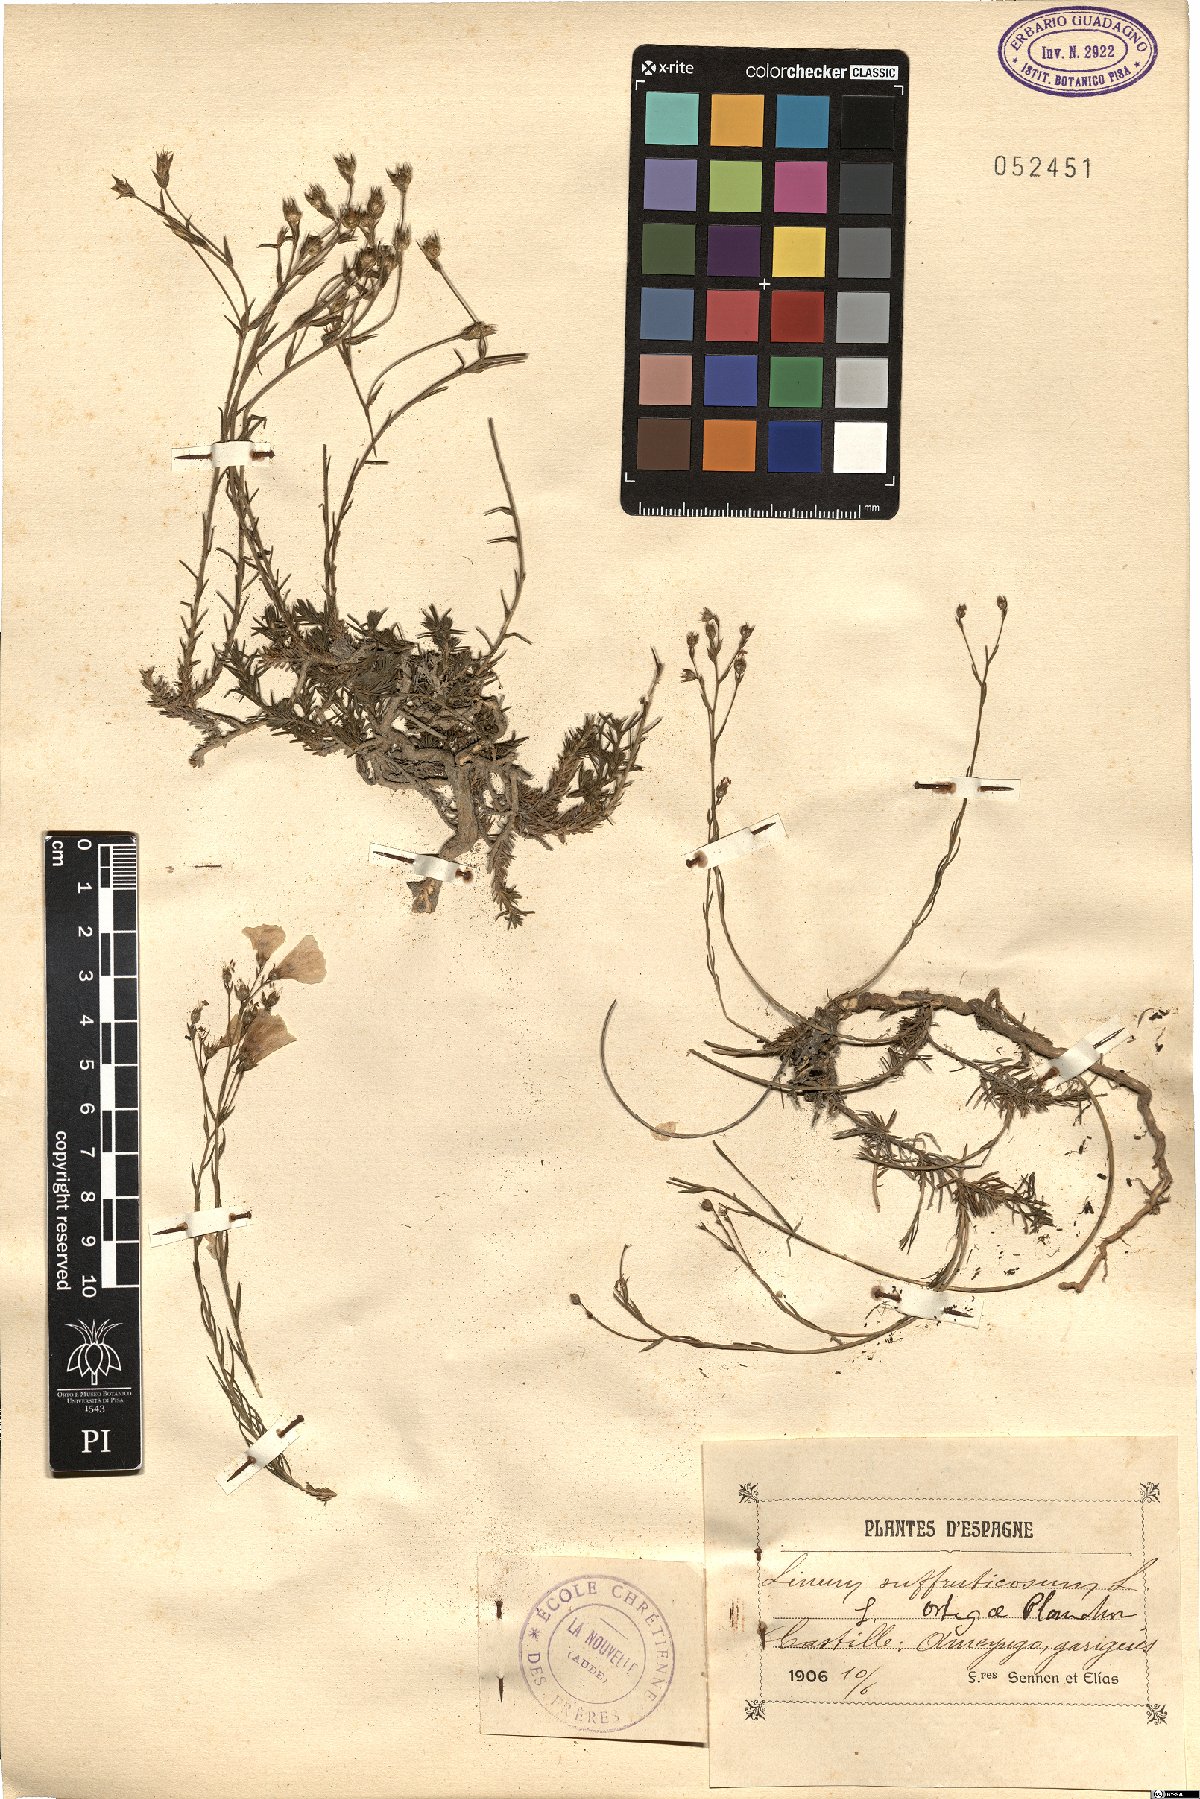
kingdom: Plantae
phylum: Tracheophyta
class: Magnoliopsida
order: Malpighiales
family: Linaceae
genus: Linum
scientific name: Linum suffruticosum
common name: White flax
